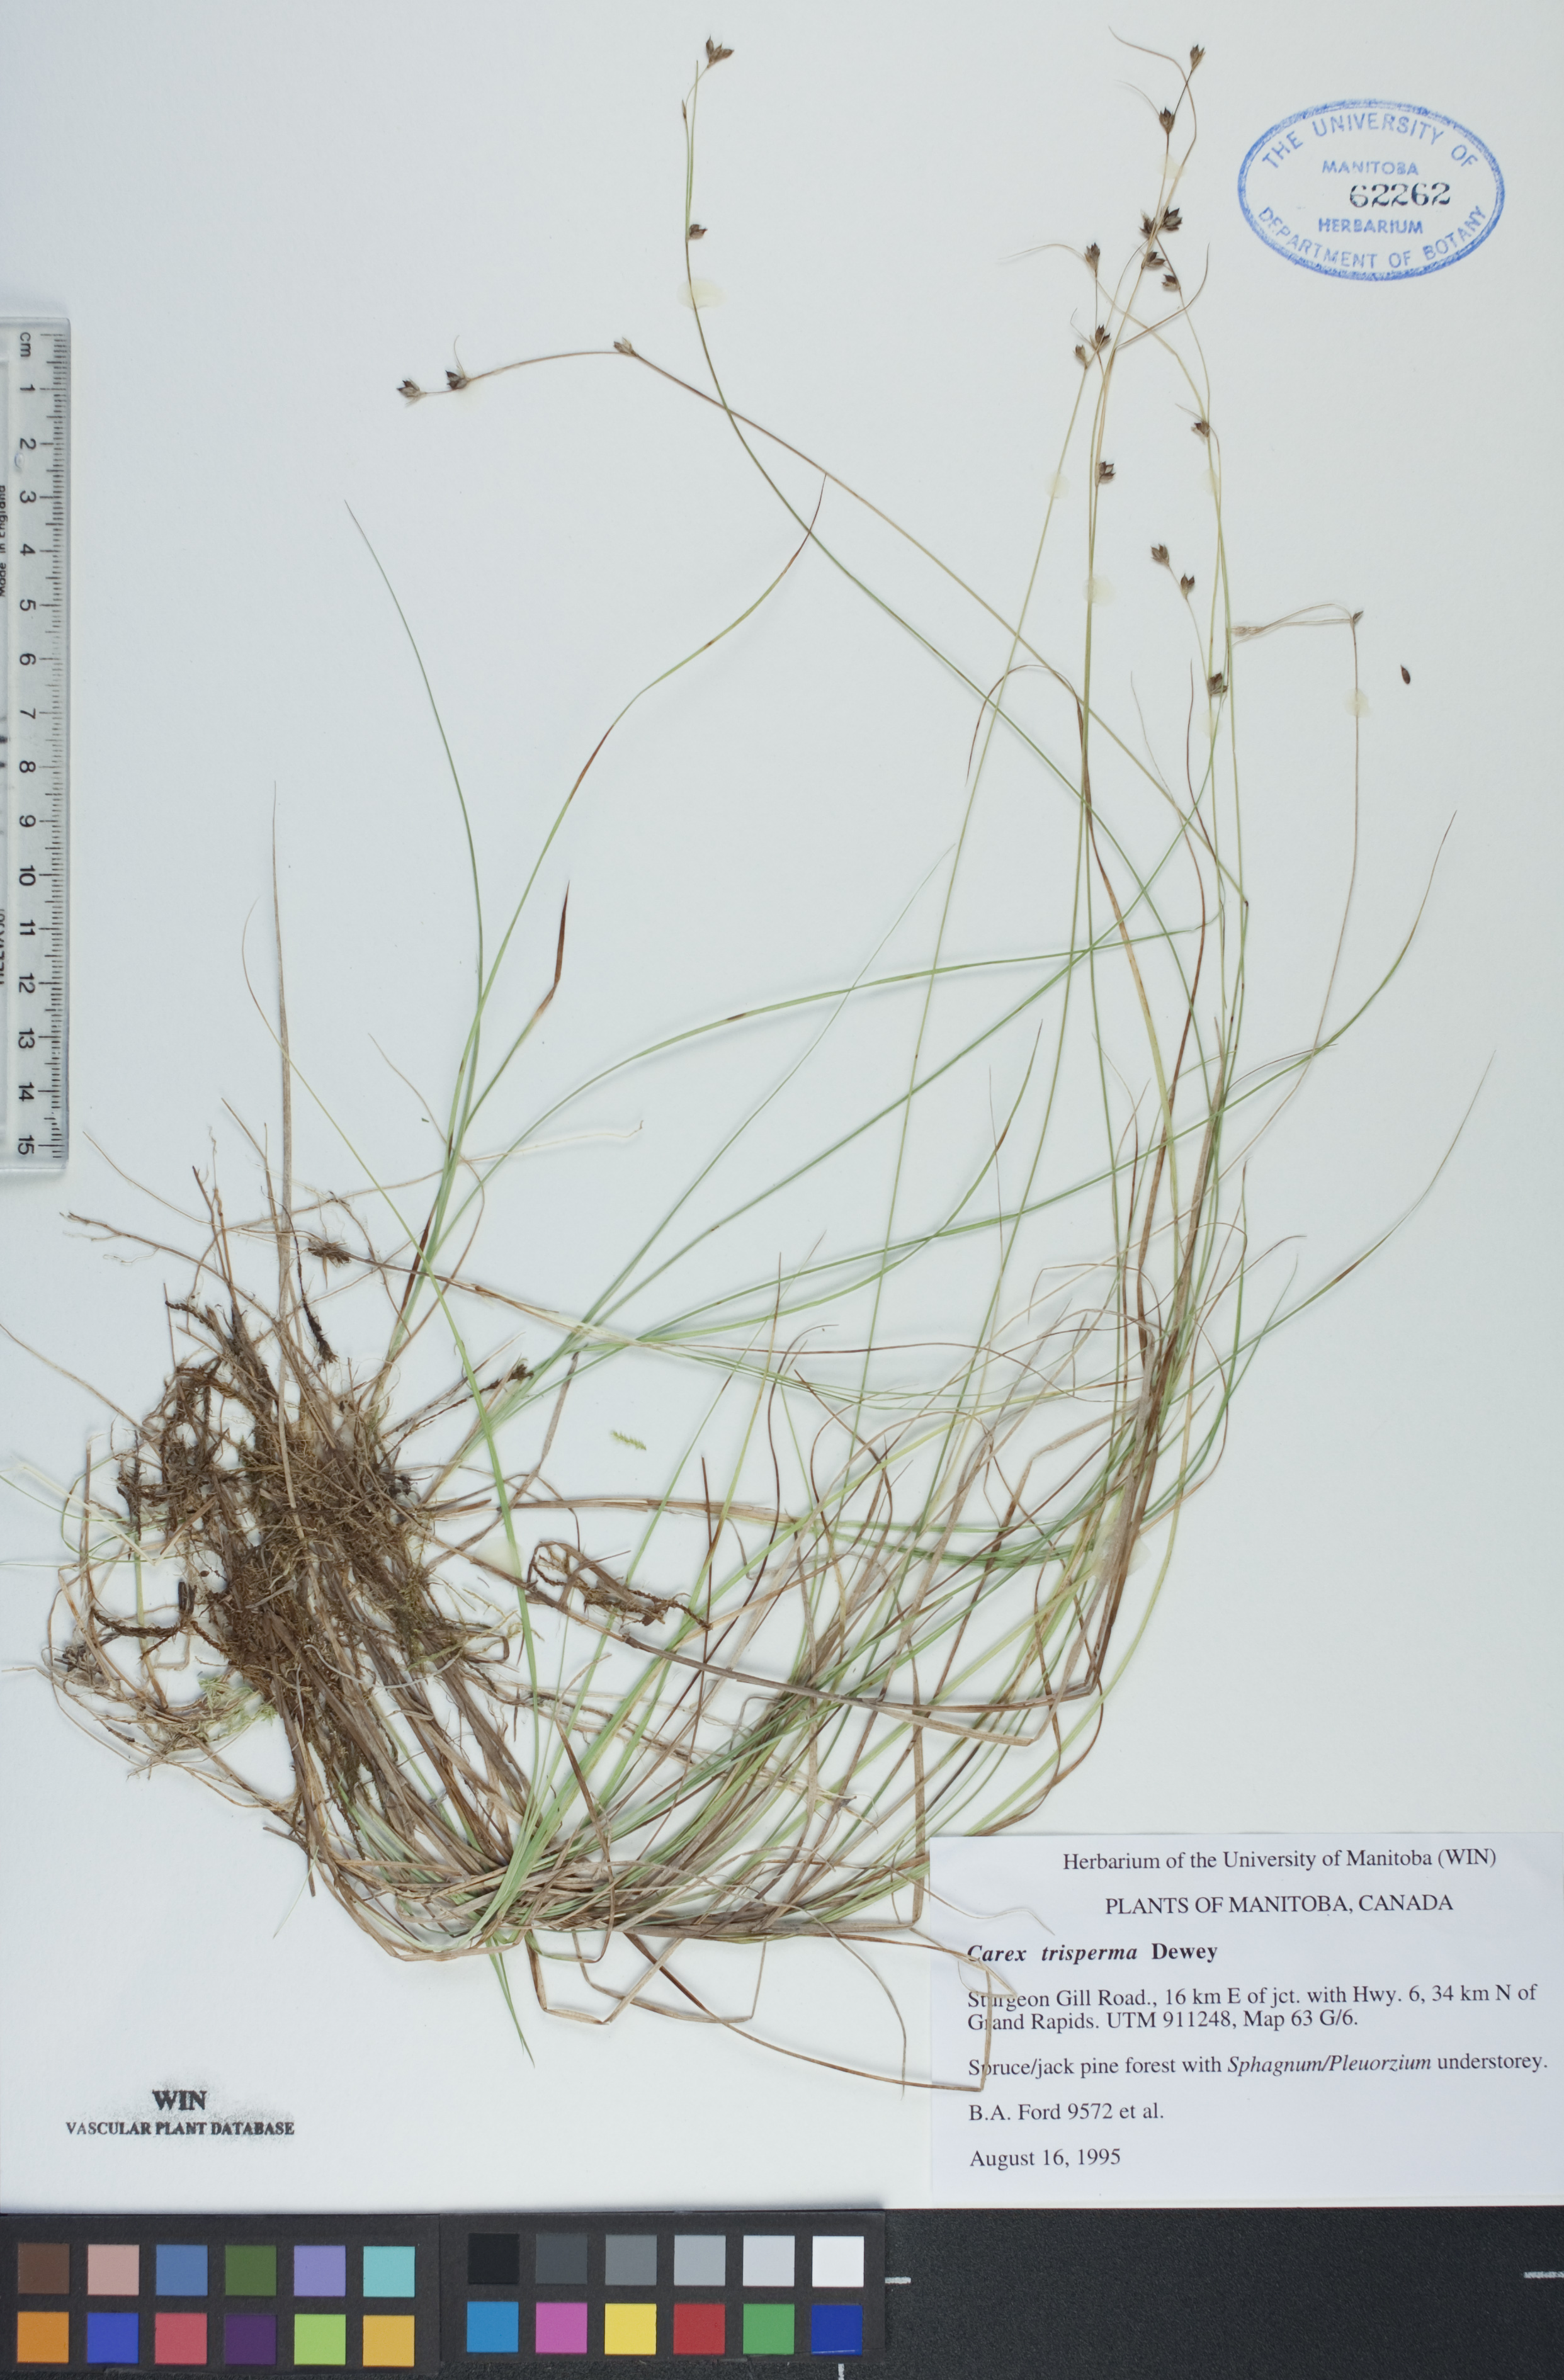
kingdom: Plantae
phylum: Tracheophyta
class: Liliopsida
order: Poales
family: Cyperaceae
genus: Carex
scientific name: Carex trisperma
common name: Three-seeded sedge
